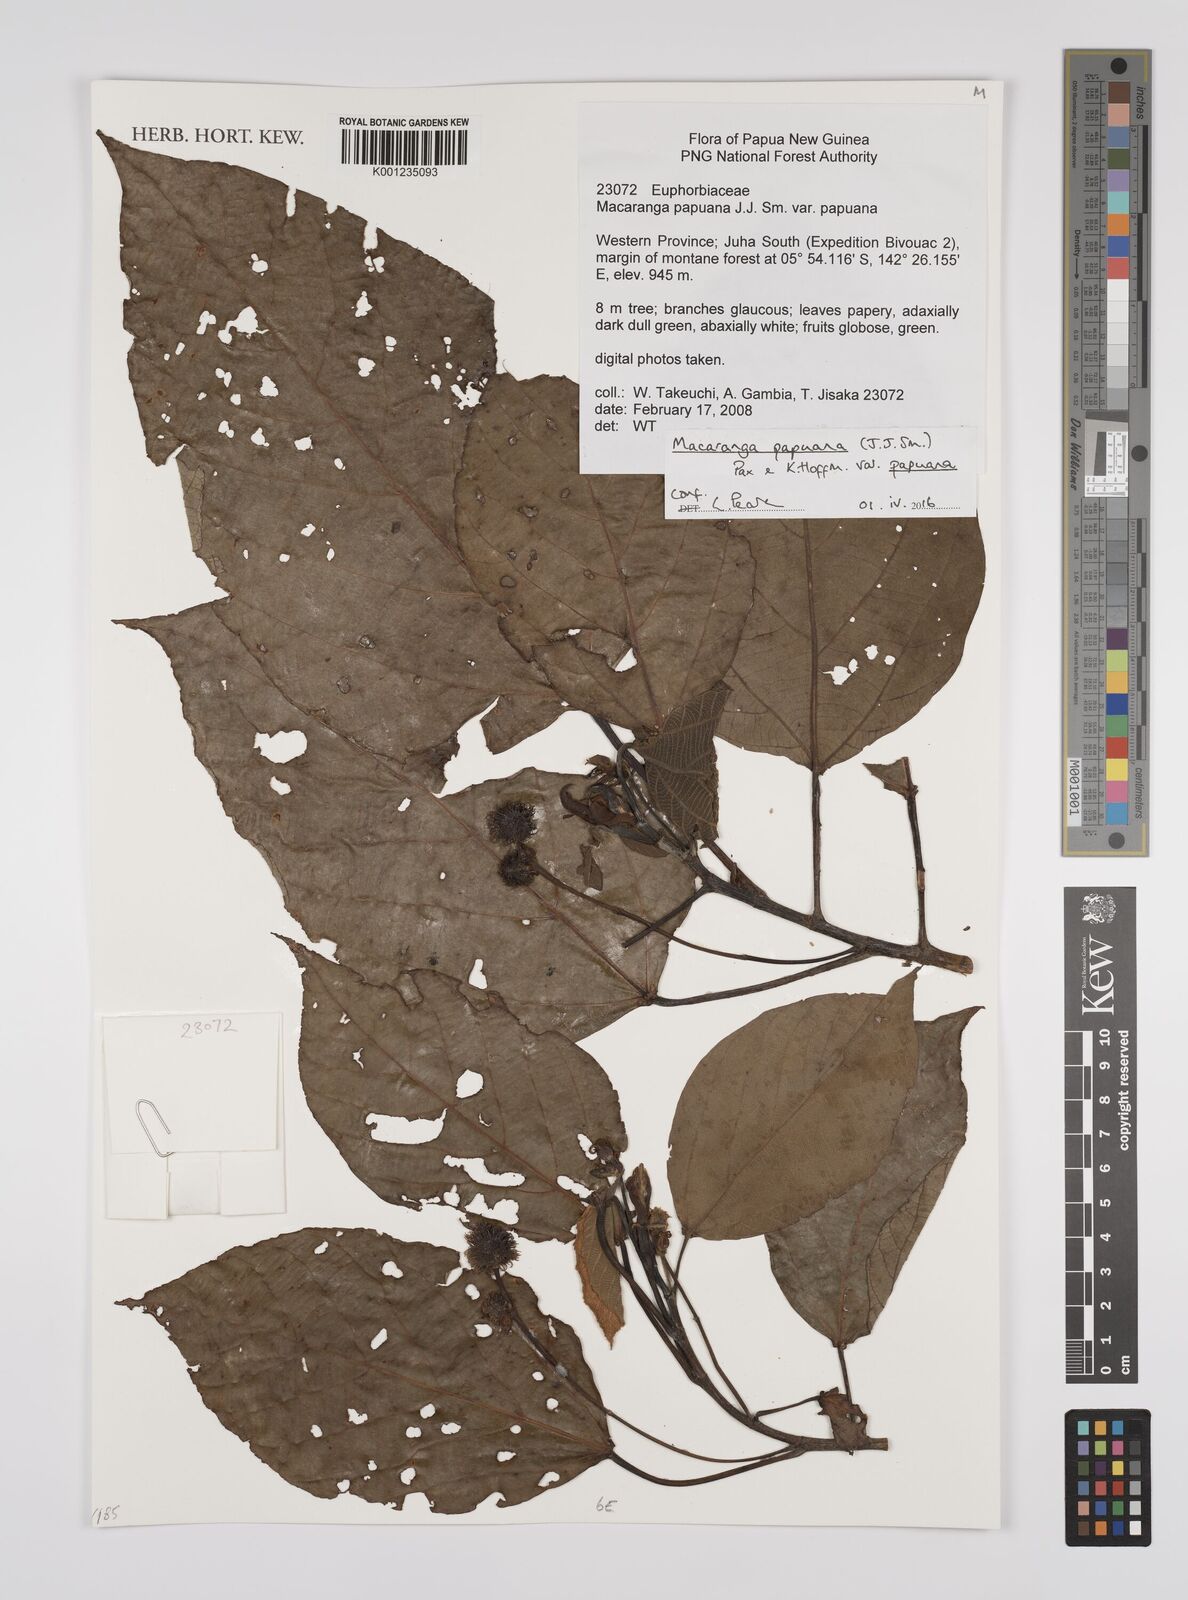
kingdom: Plantae
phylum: Tracheophyta
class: Magnoliopsida
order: Malpighiales
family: Euphorbiaceae
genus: Macaranga
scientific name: Macaranga papuana
